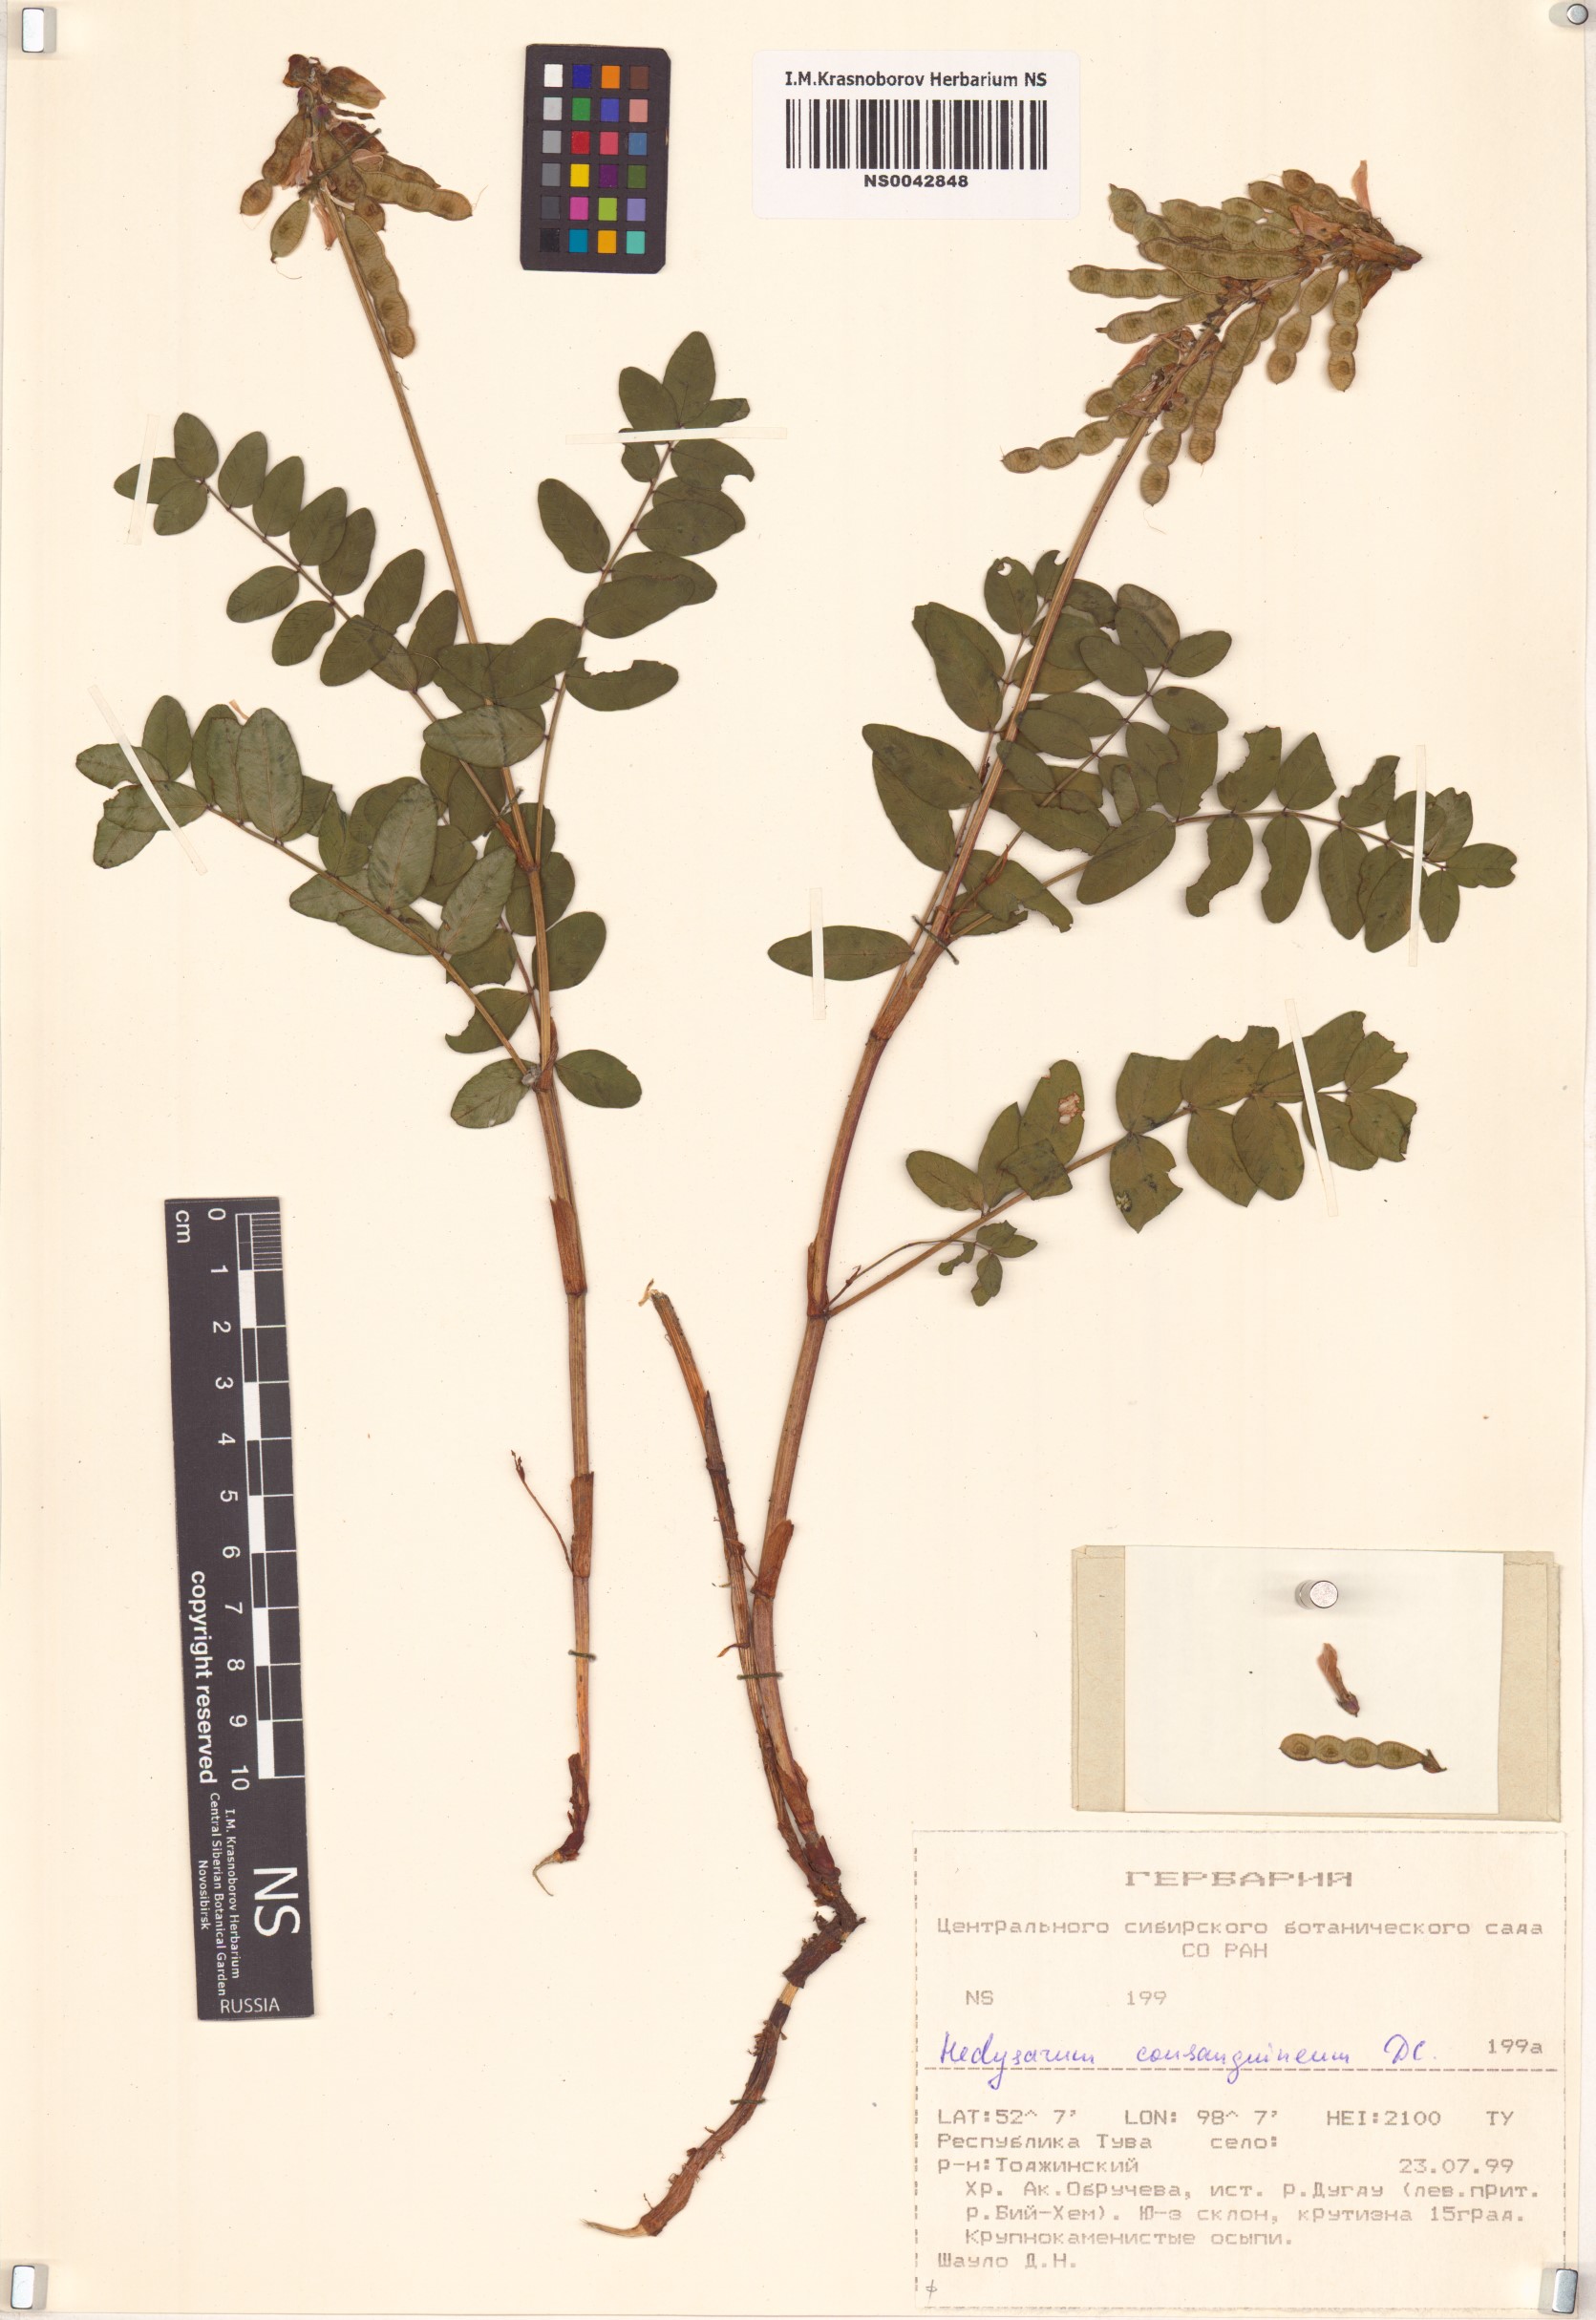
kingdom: Plantae
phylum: Tracheophyta
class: Magnoliopsida
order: Fabales
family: Fabaceae
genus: Hedysarum
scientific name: Hedysarum consanguineum
